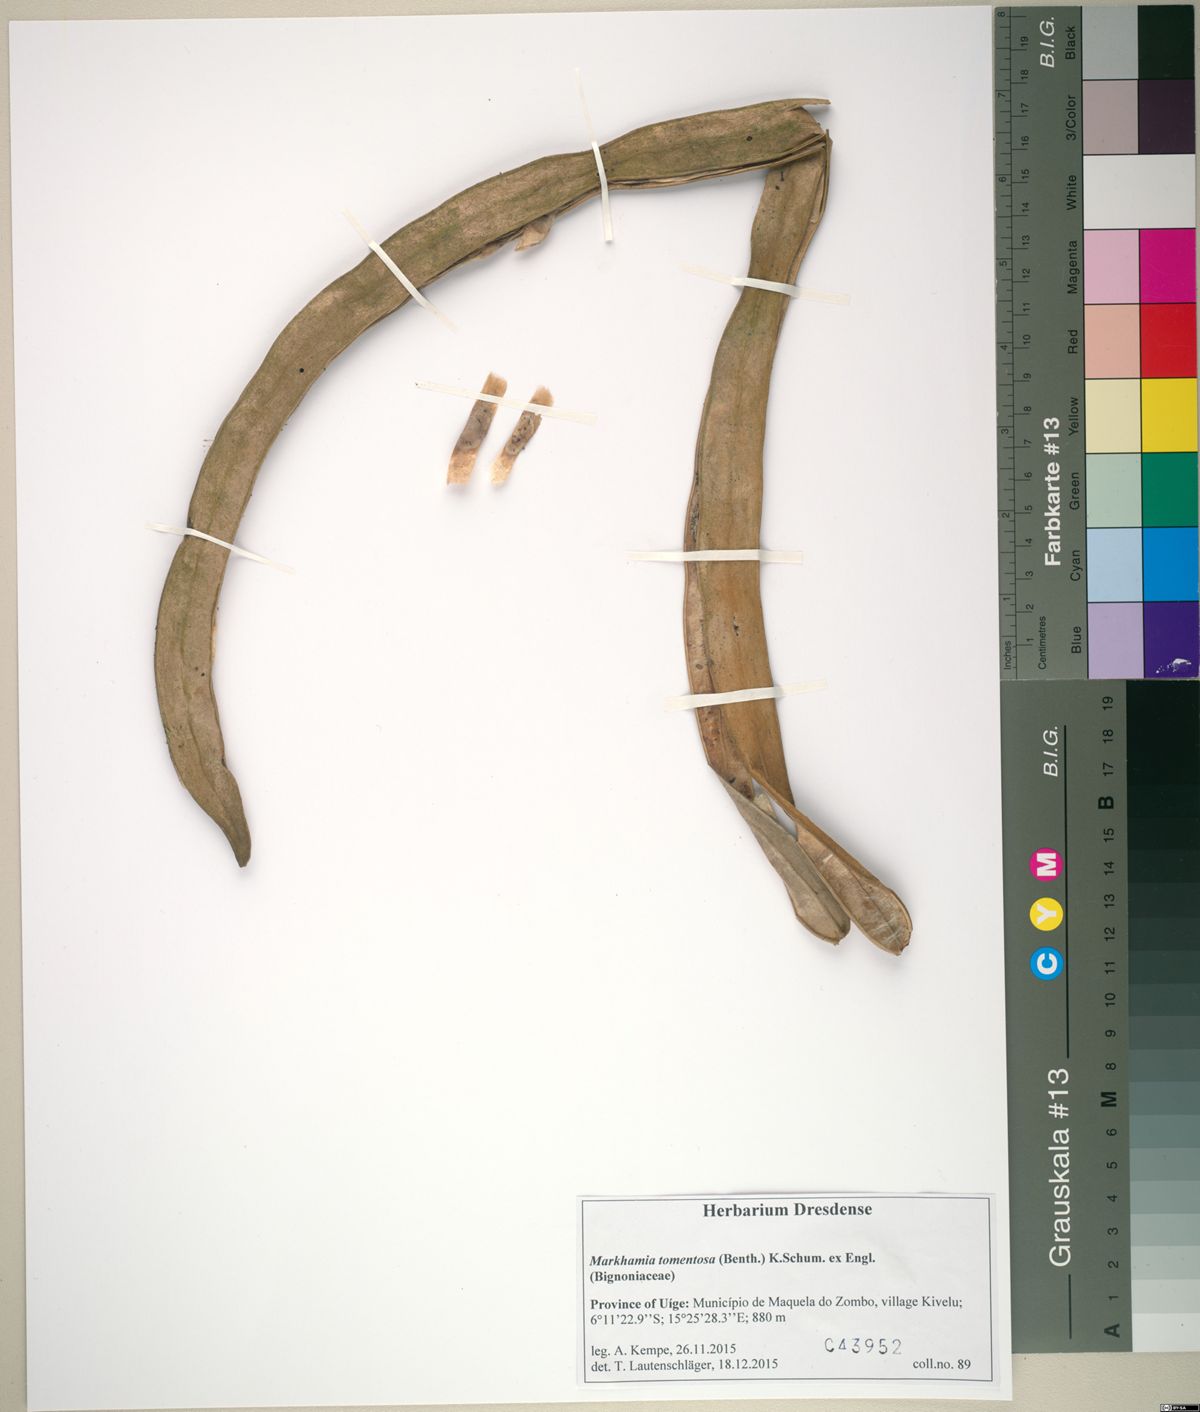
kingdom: Plantae
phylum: Tracheophyta
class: Magnoliopsida
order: Lamiales
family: Bignoniaceae
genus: Markhamia
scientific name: Markhamia tomentosa
